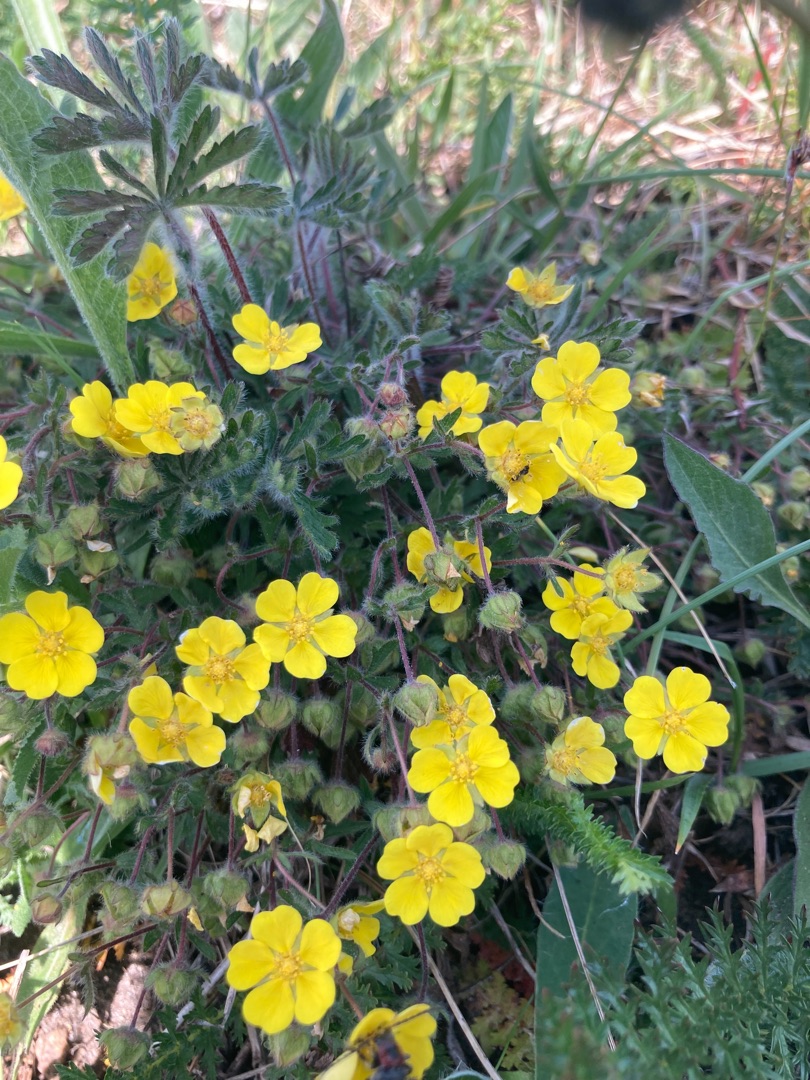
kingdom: Plantae
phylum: Tracheophyta
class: Magnoliopsida
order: Rosales
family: Rosaceae
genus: Potentilla
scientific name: Potentilla heptaphylla
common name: Mat potentil
